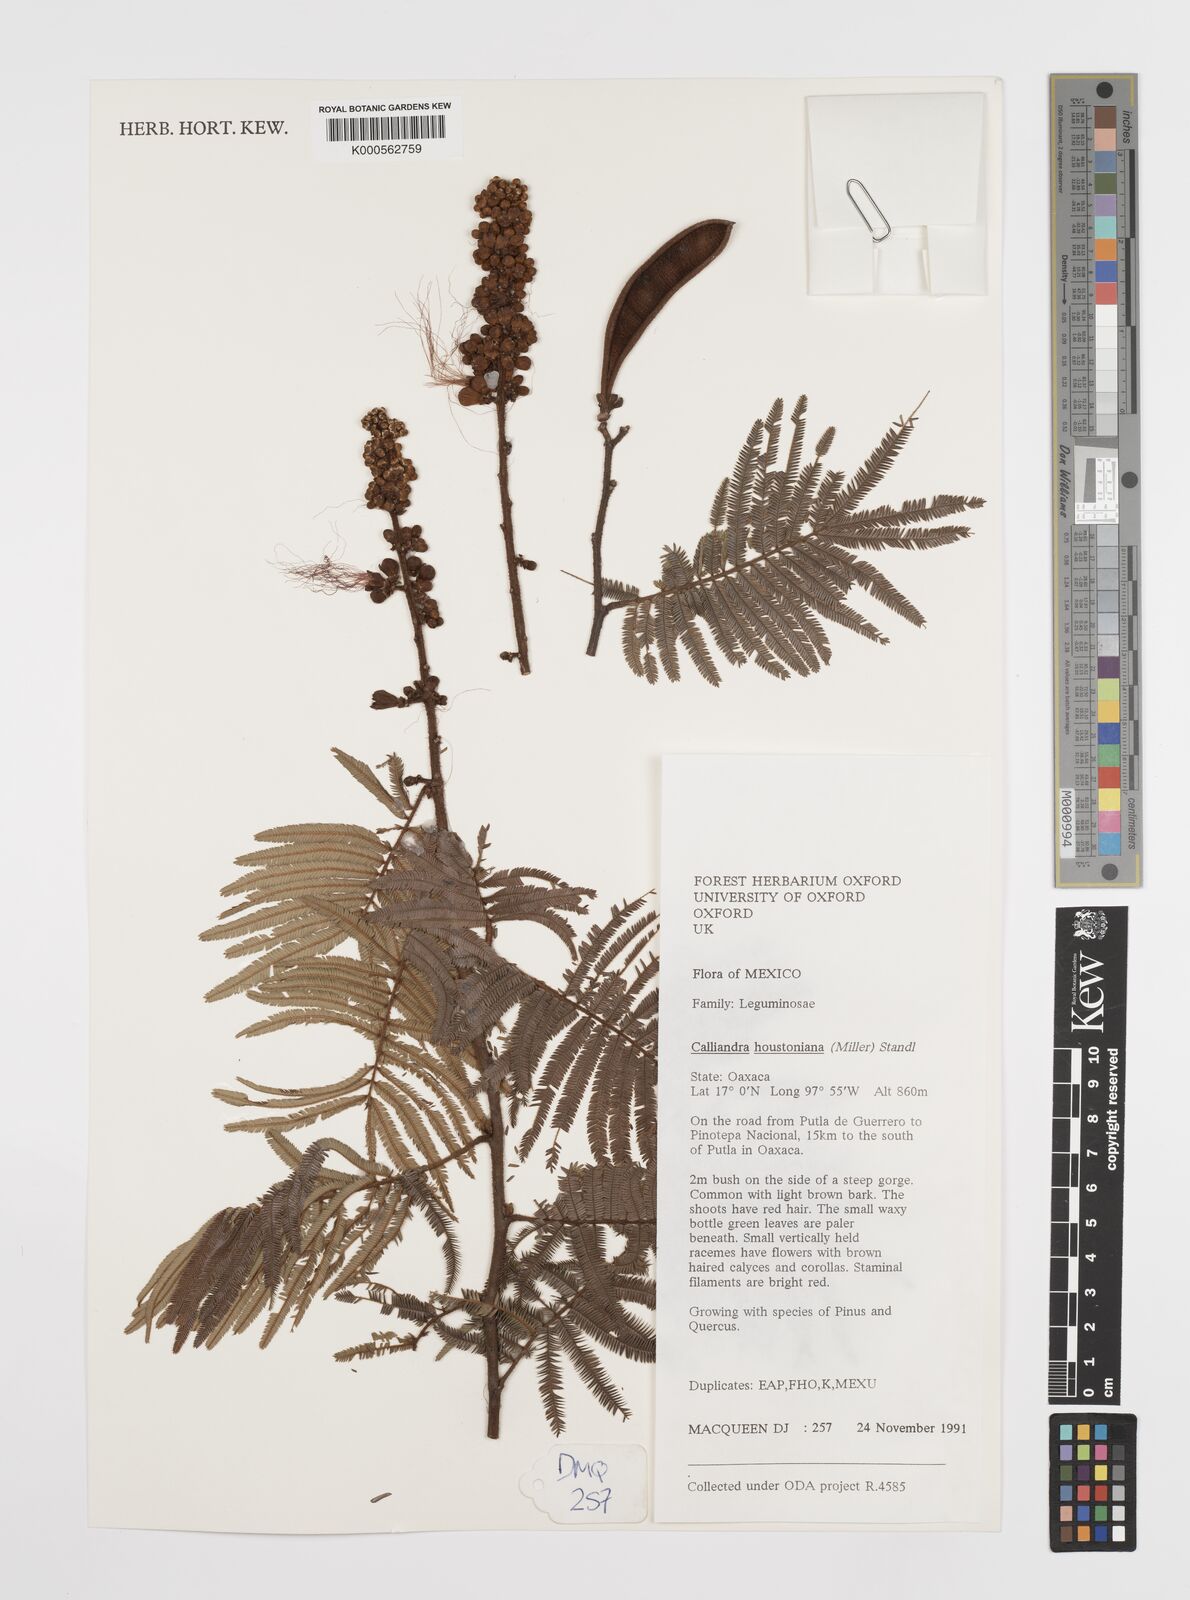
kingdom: Plantae
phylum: Tracheophyta
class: Magnoliopsida
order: Fabales
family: Fabaceae
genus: Calliandra
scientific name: Calliandra houstoniana
